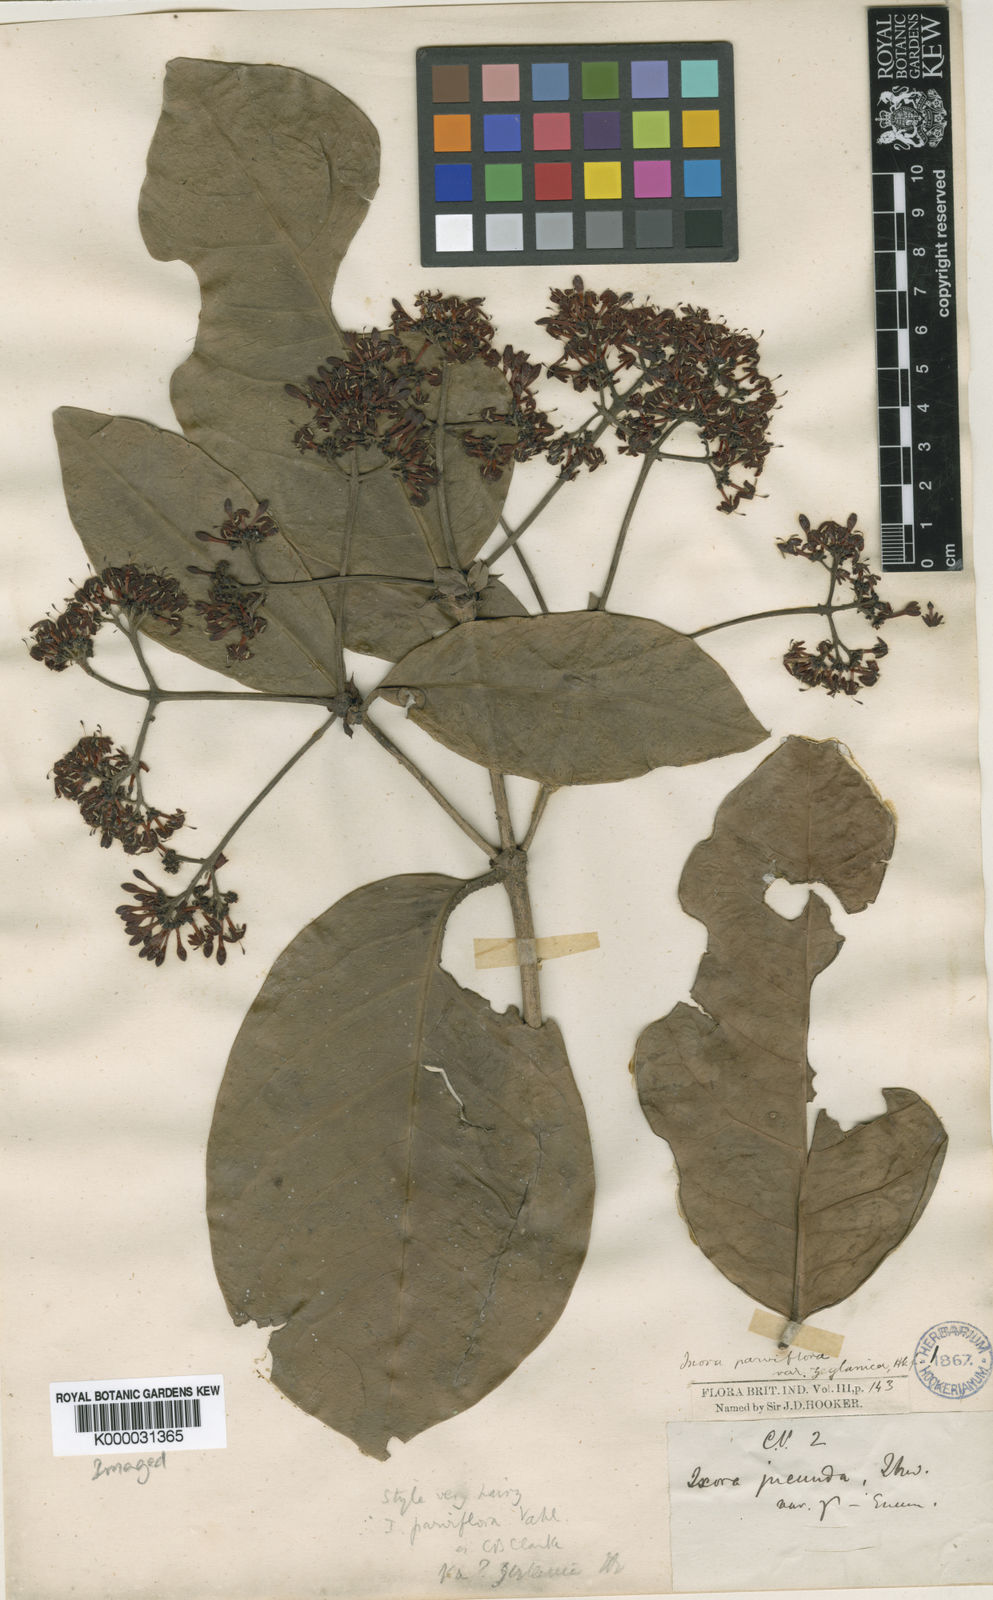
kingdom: Plantae
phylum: Tracheophyta
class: Magnoliopsida
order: Gentianales
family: Rubiaceae
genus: Ixora
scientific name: Ixora pavetta
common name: Torch tree
